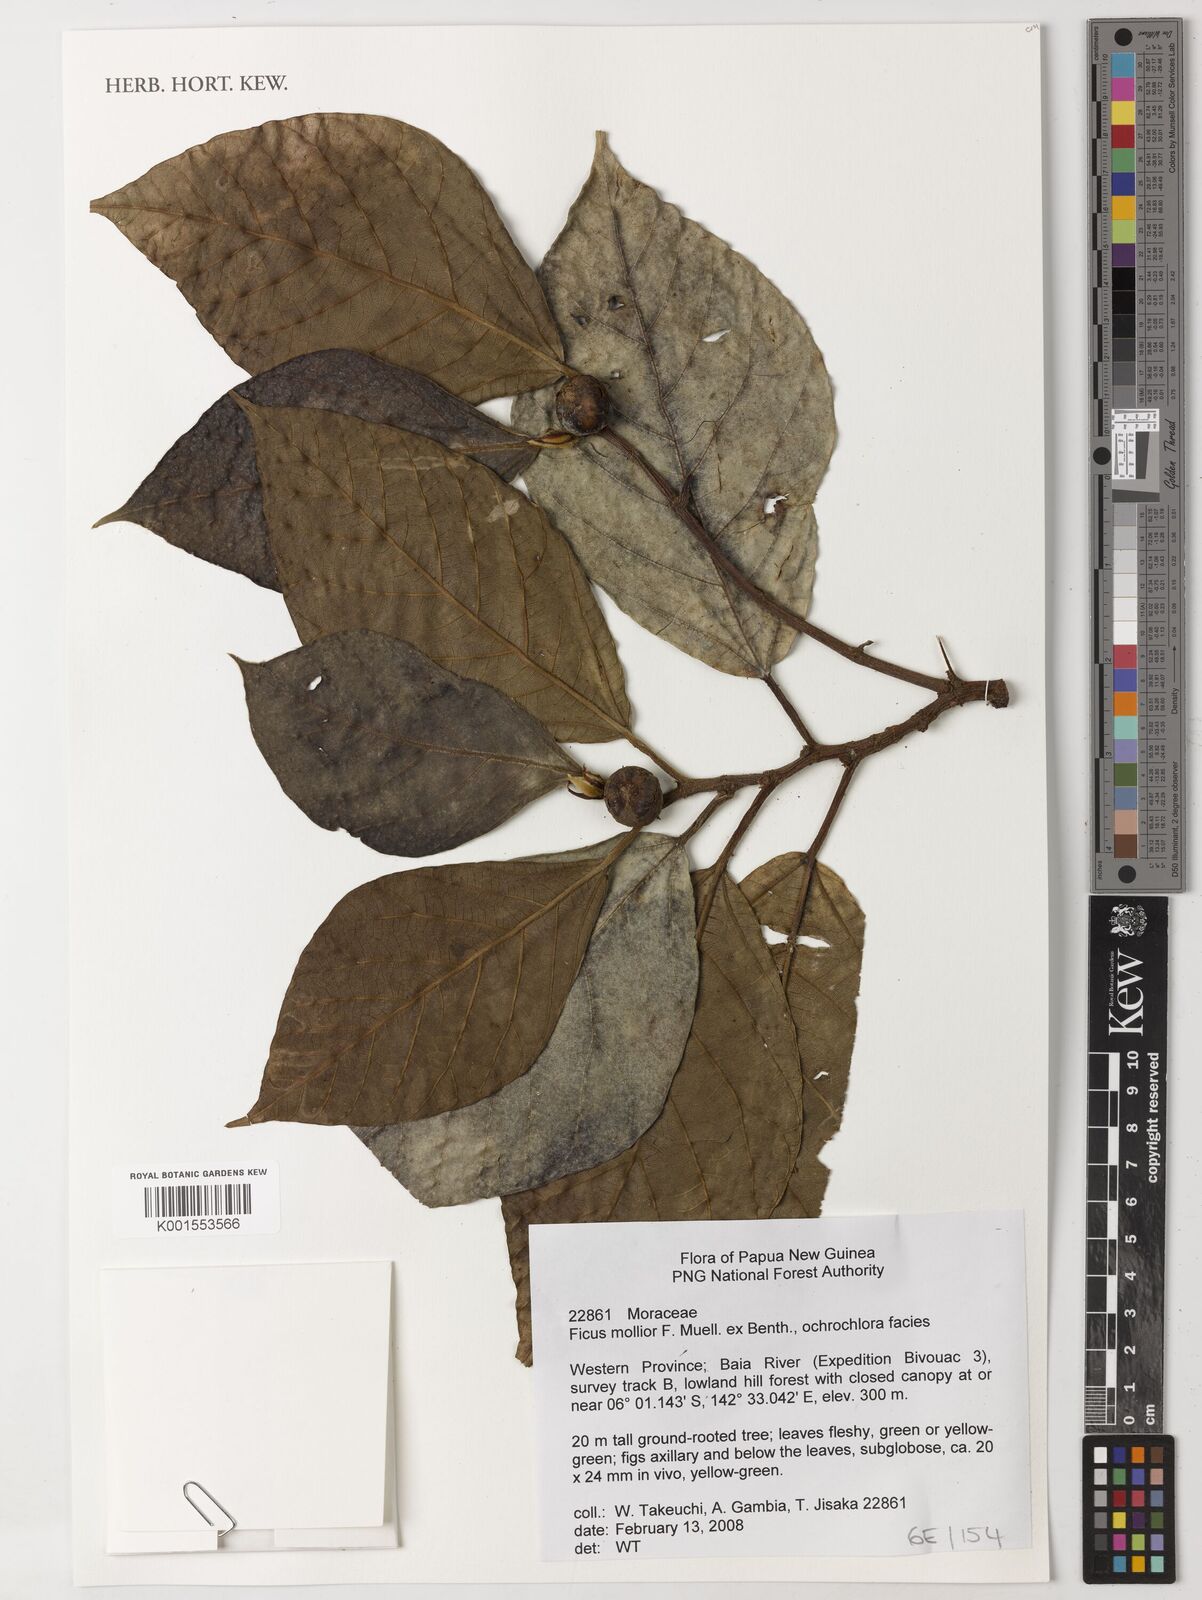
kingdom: Plantae
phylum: Tracheophyta
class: Magnoliopsida
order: Rosales
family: Moraceae
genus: Ficus
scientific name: Ficus mollior
